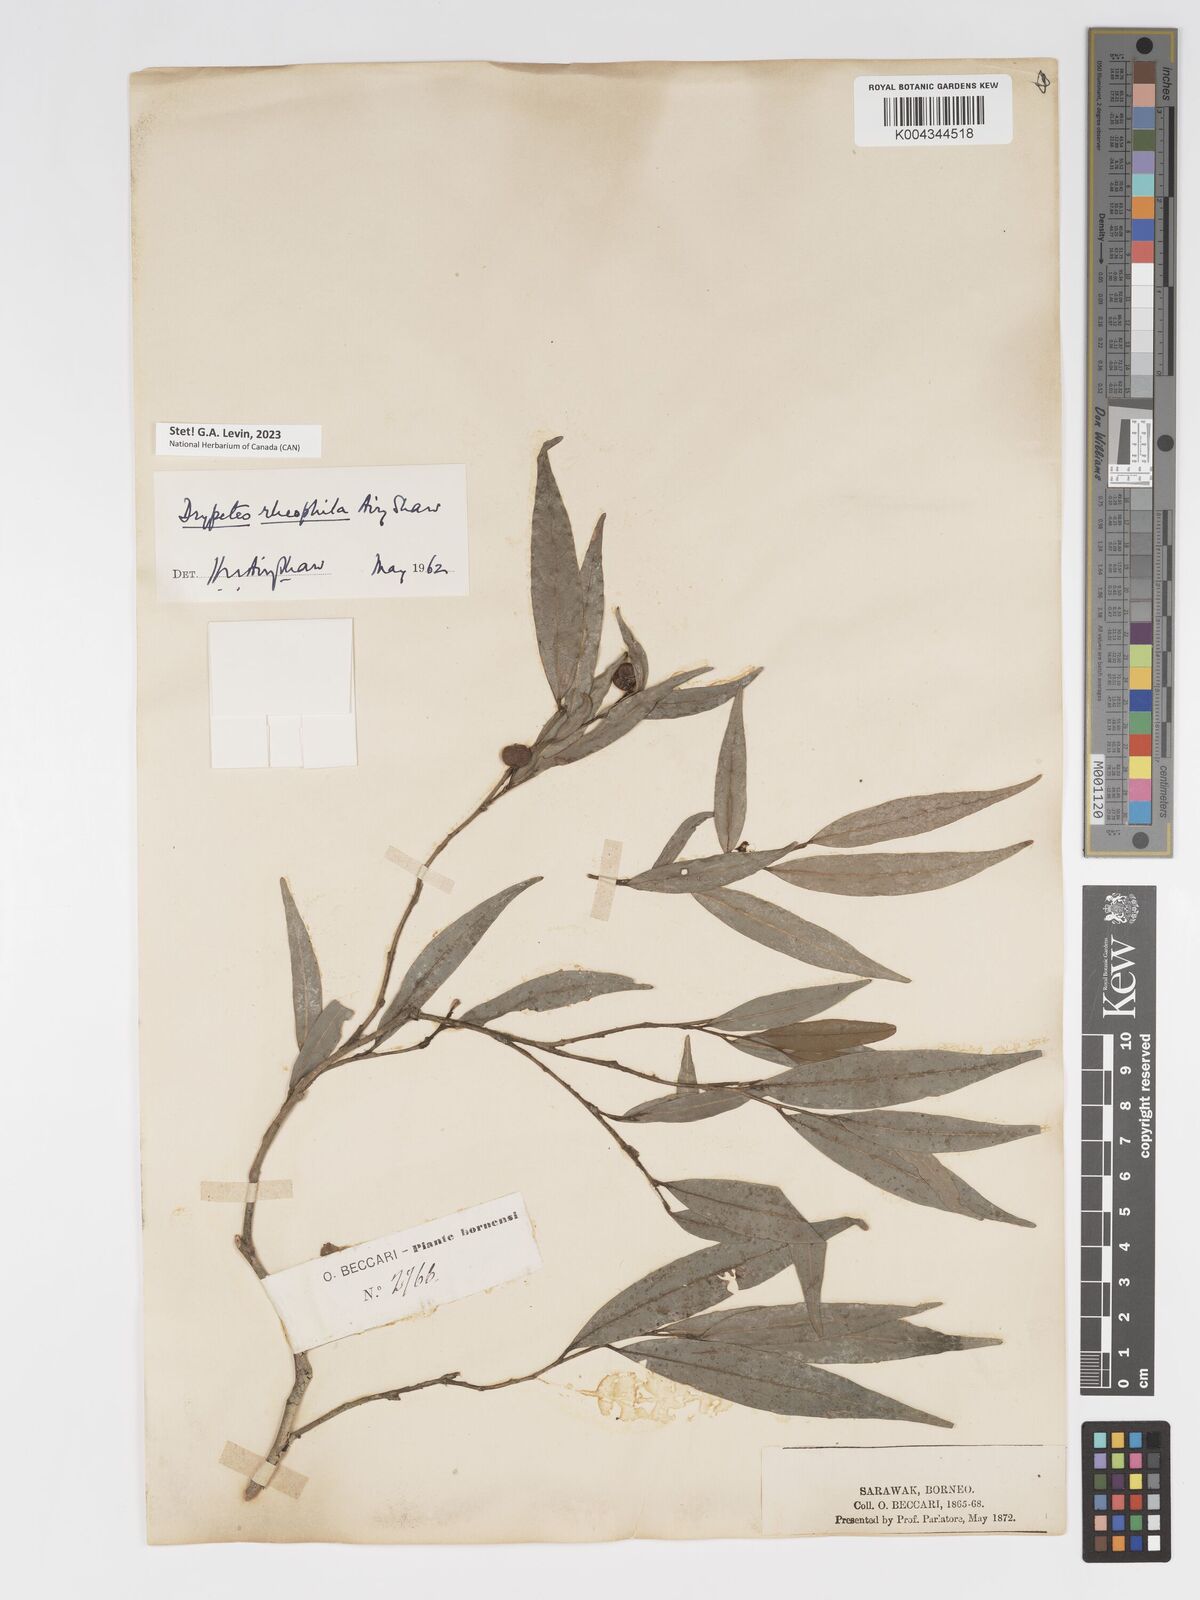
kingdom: Plantae
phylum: Tracheophyta
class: Magnoliopsida
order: Malpighiales
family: Putranjivaceae
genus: Drypetes
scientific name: Drypetes rhakodiskos
